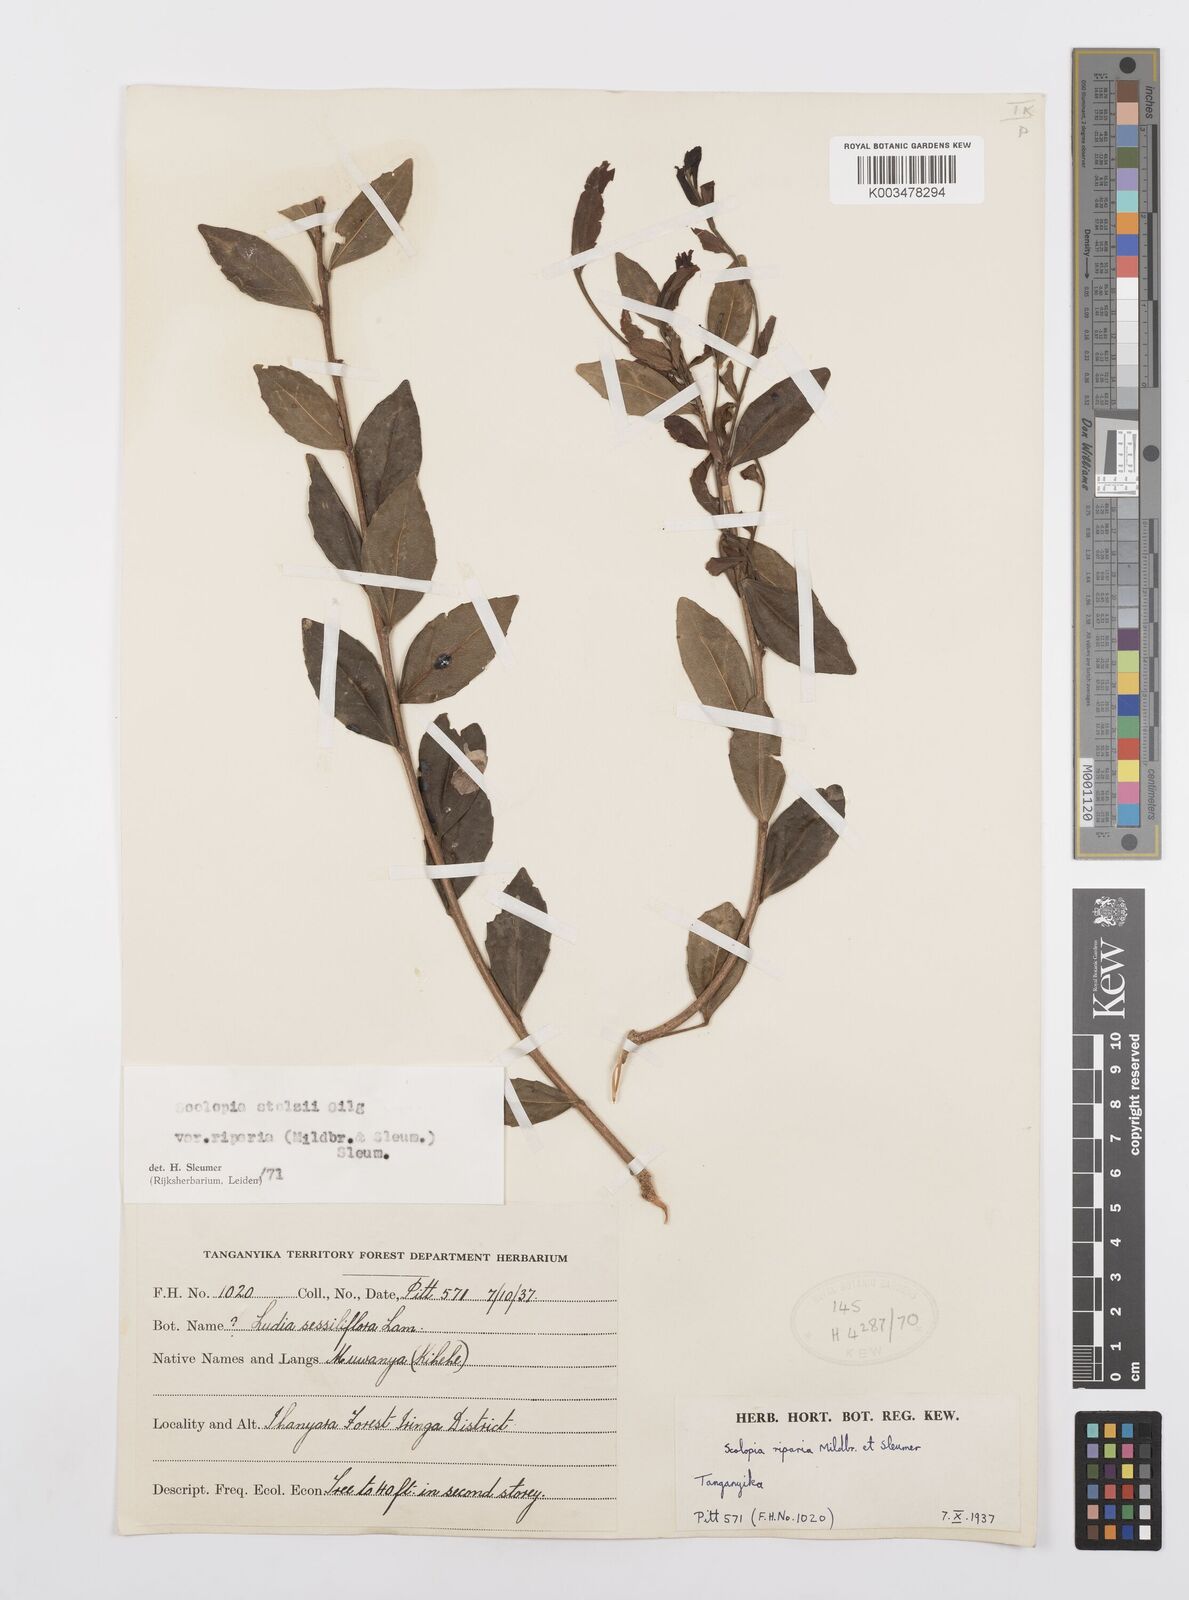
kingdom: Plantae
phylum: Tracheophyta
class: Magnoliopsida
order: Malpighiales
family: Salicaceae
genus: Scolopia
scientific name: Scolopia stolzii
